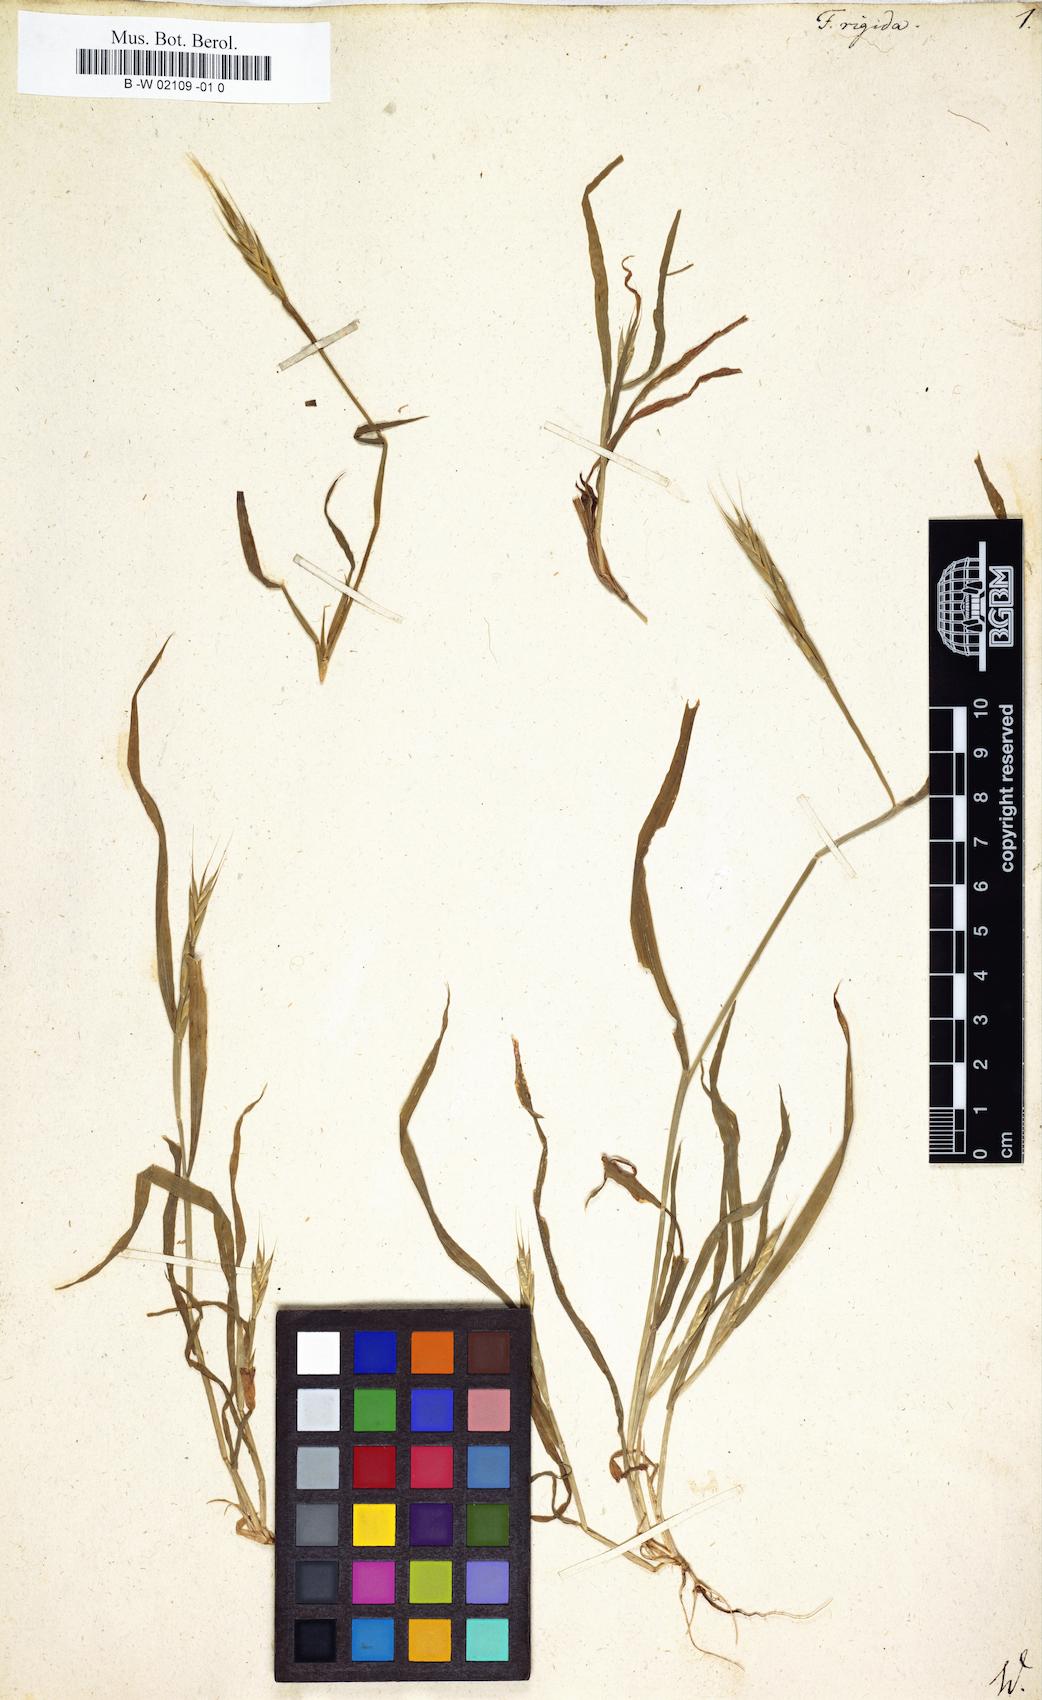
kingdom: Plantae
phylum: Tracheophyta
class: Liliopsida
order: Poales
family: Poaceae
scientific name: Poaceae
